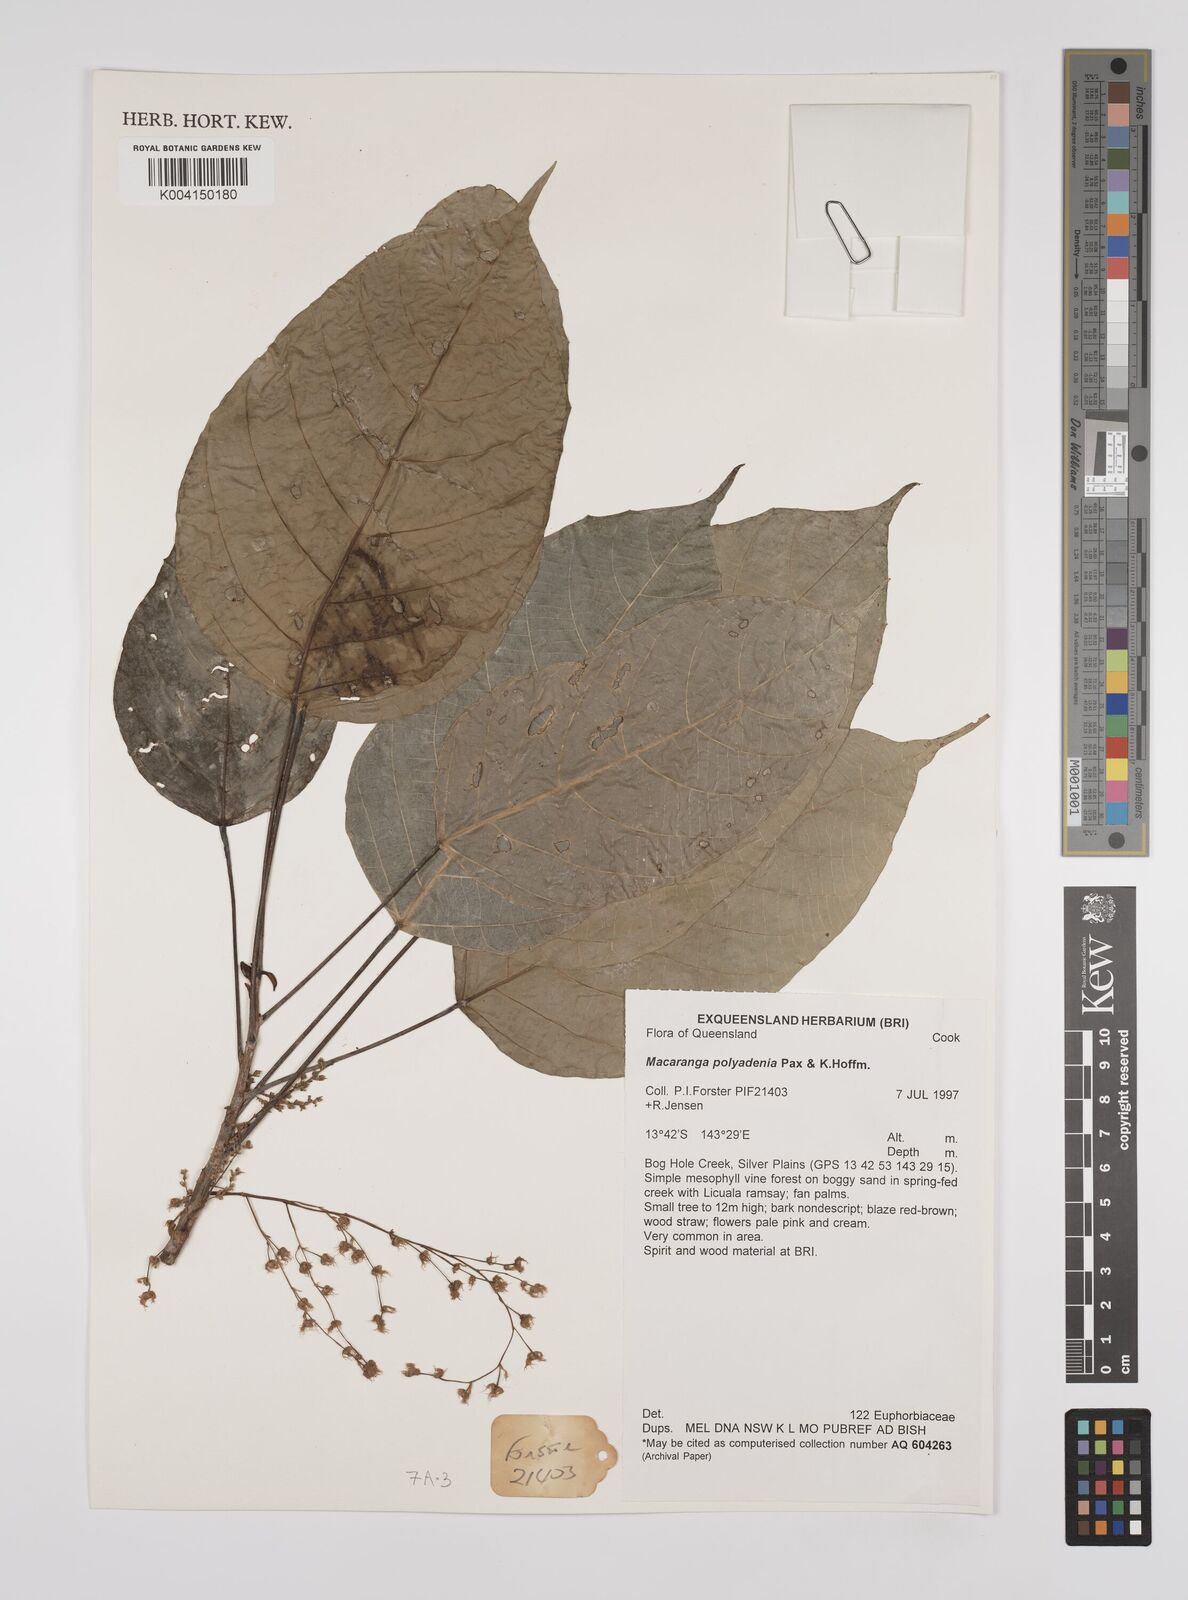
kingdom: Plantae
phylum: Tracheophyta
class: Magnoliopsida
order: Malpighiales
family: Euphorbiaceae
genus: Macaranga
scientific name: Macaranga polyadenia
